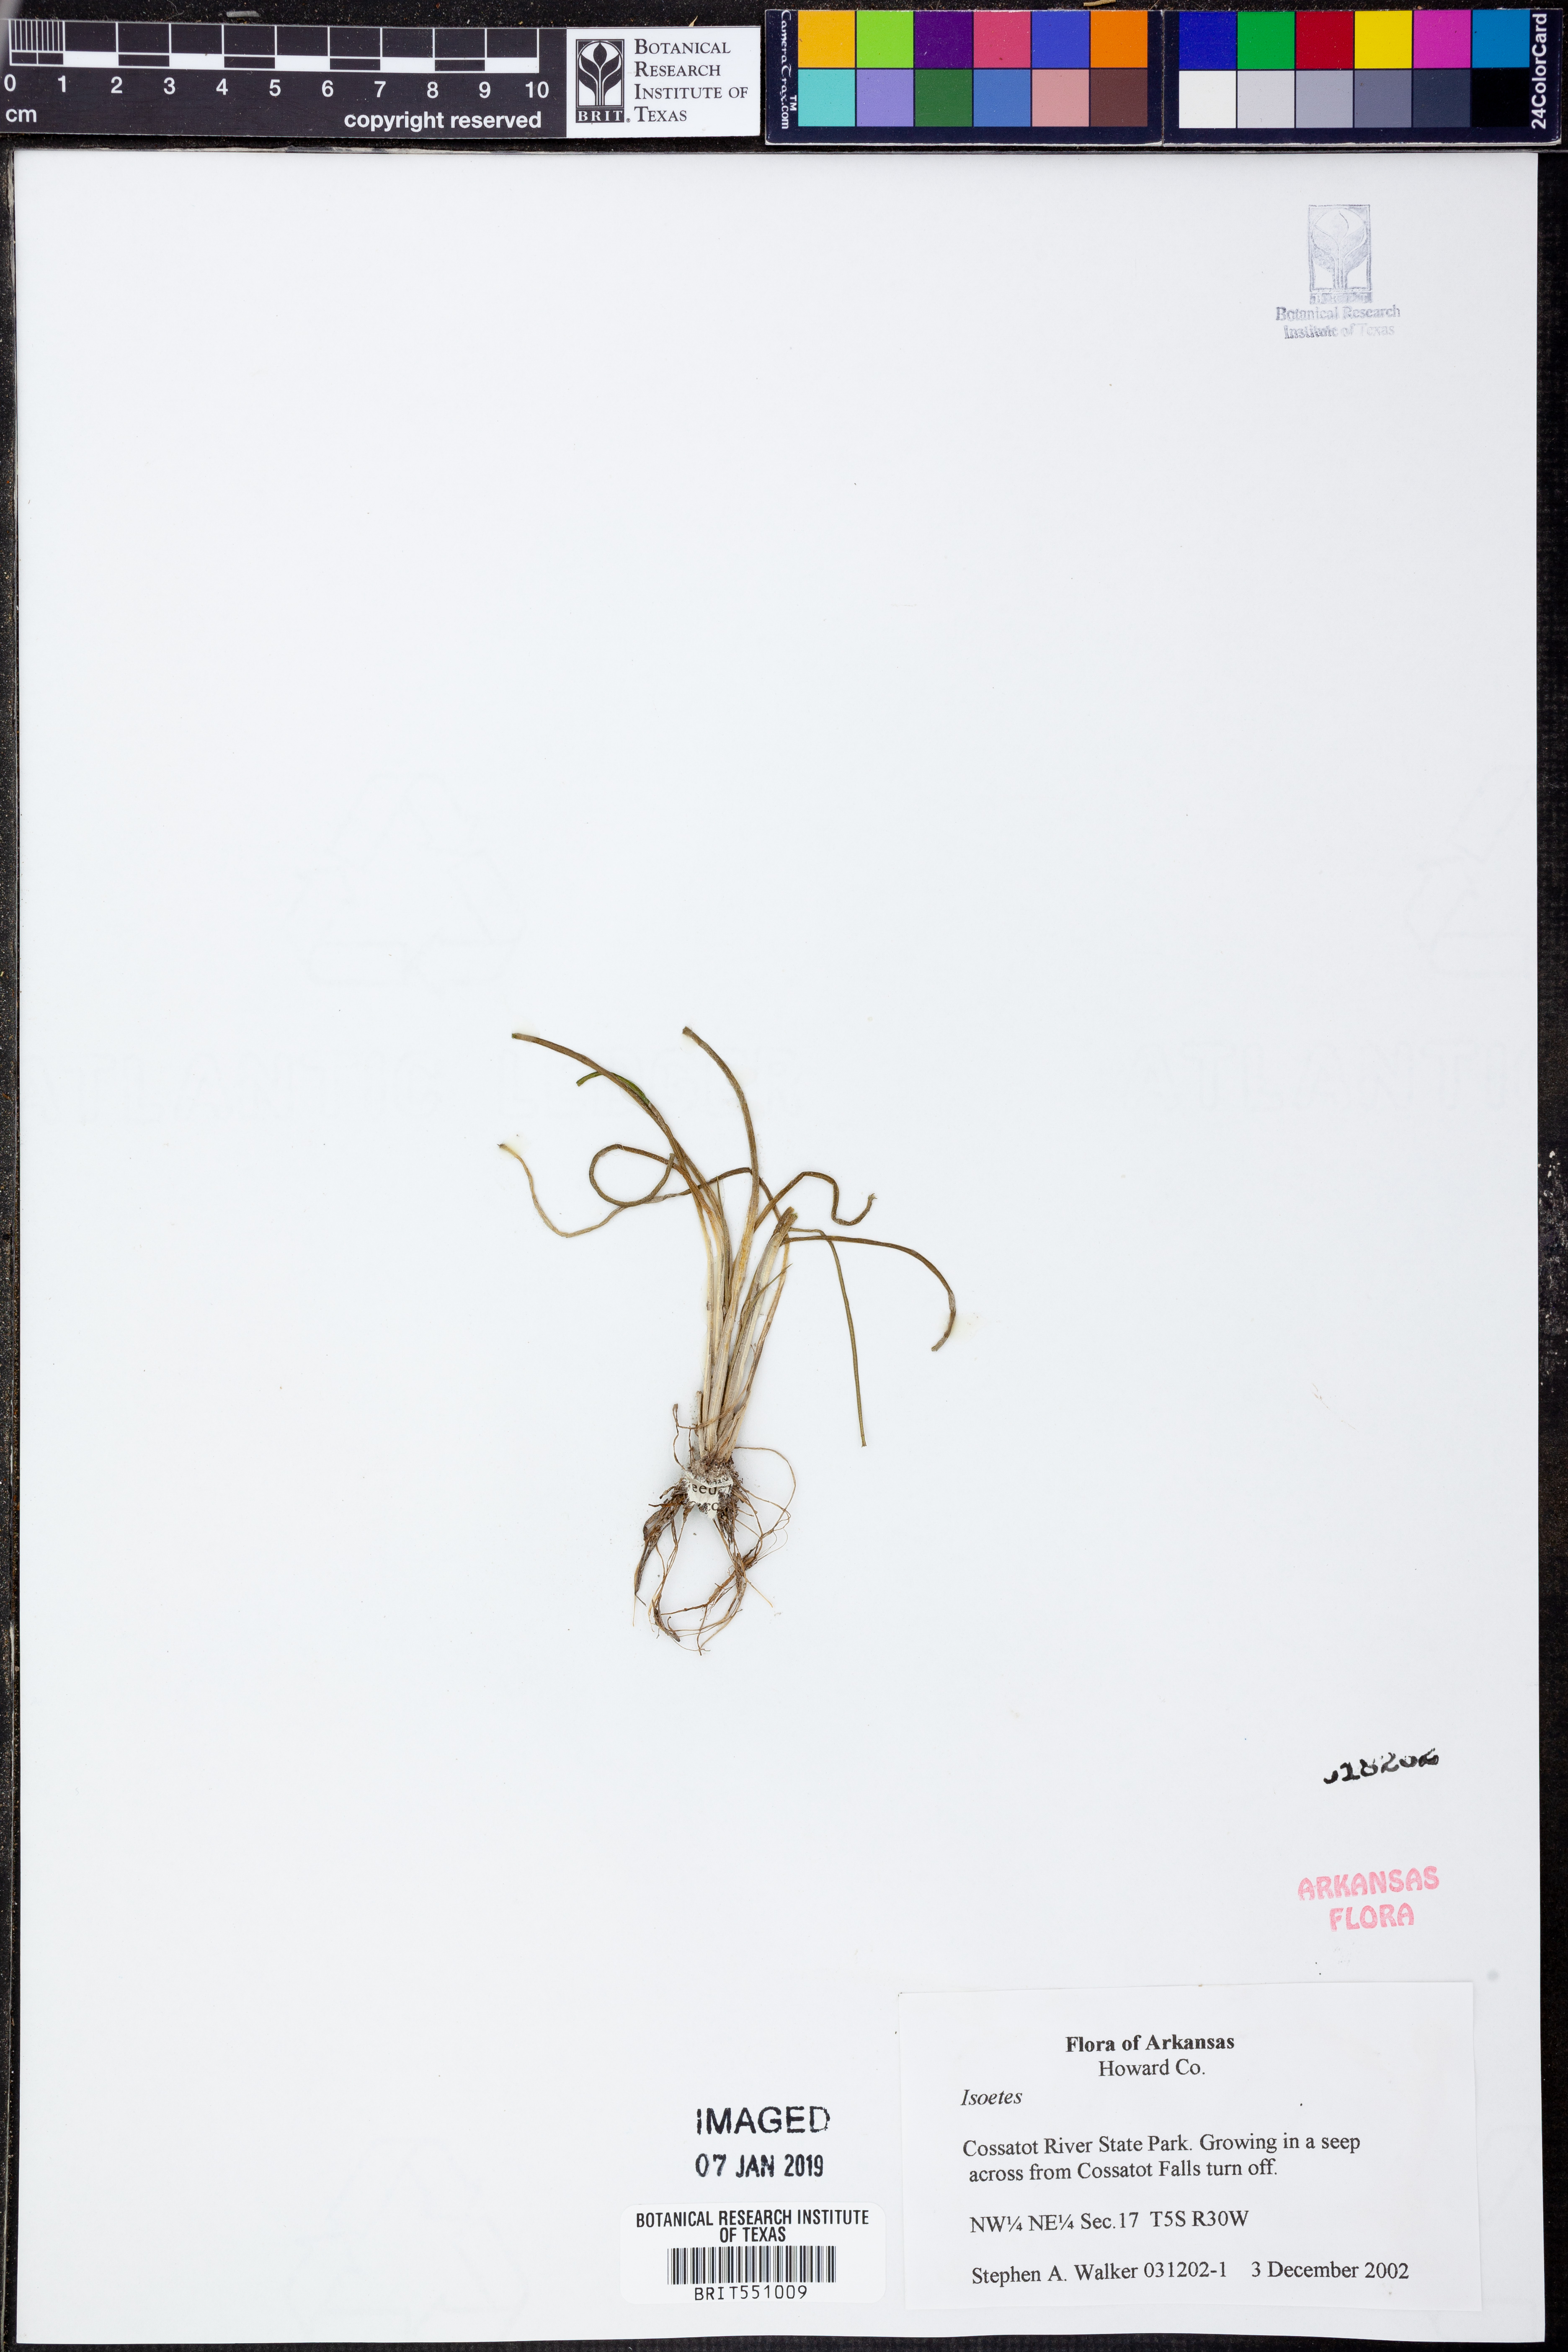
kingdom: Plantae
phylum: Tracheophyta
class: Lycopodiopsida
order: Isoetales
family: Isoetaceae
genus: Isoetes
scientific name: Isoetes
